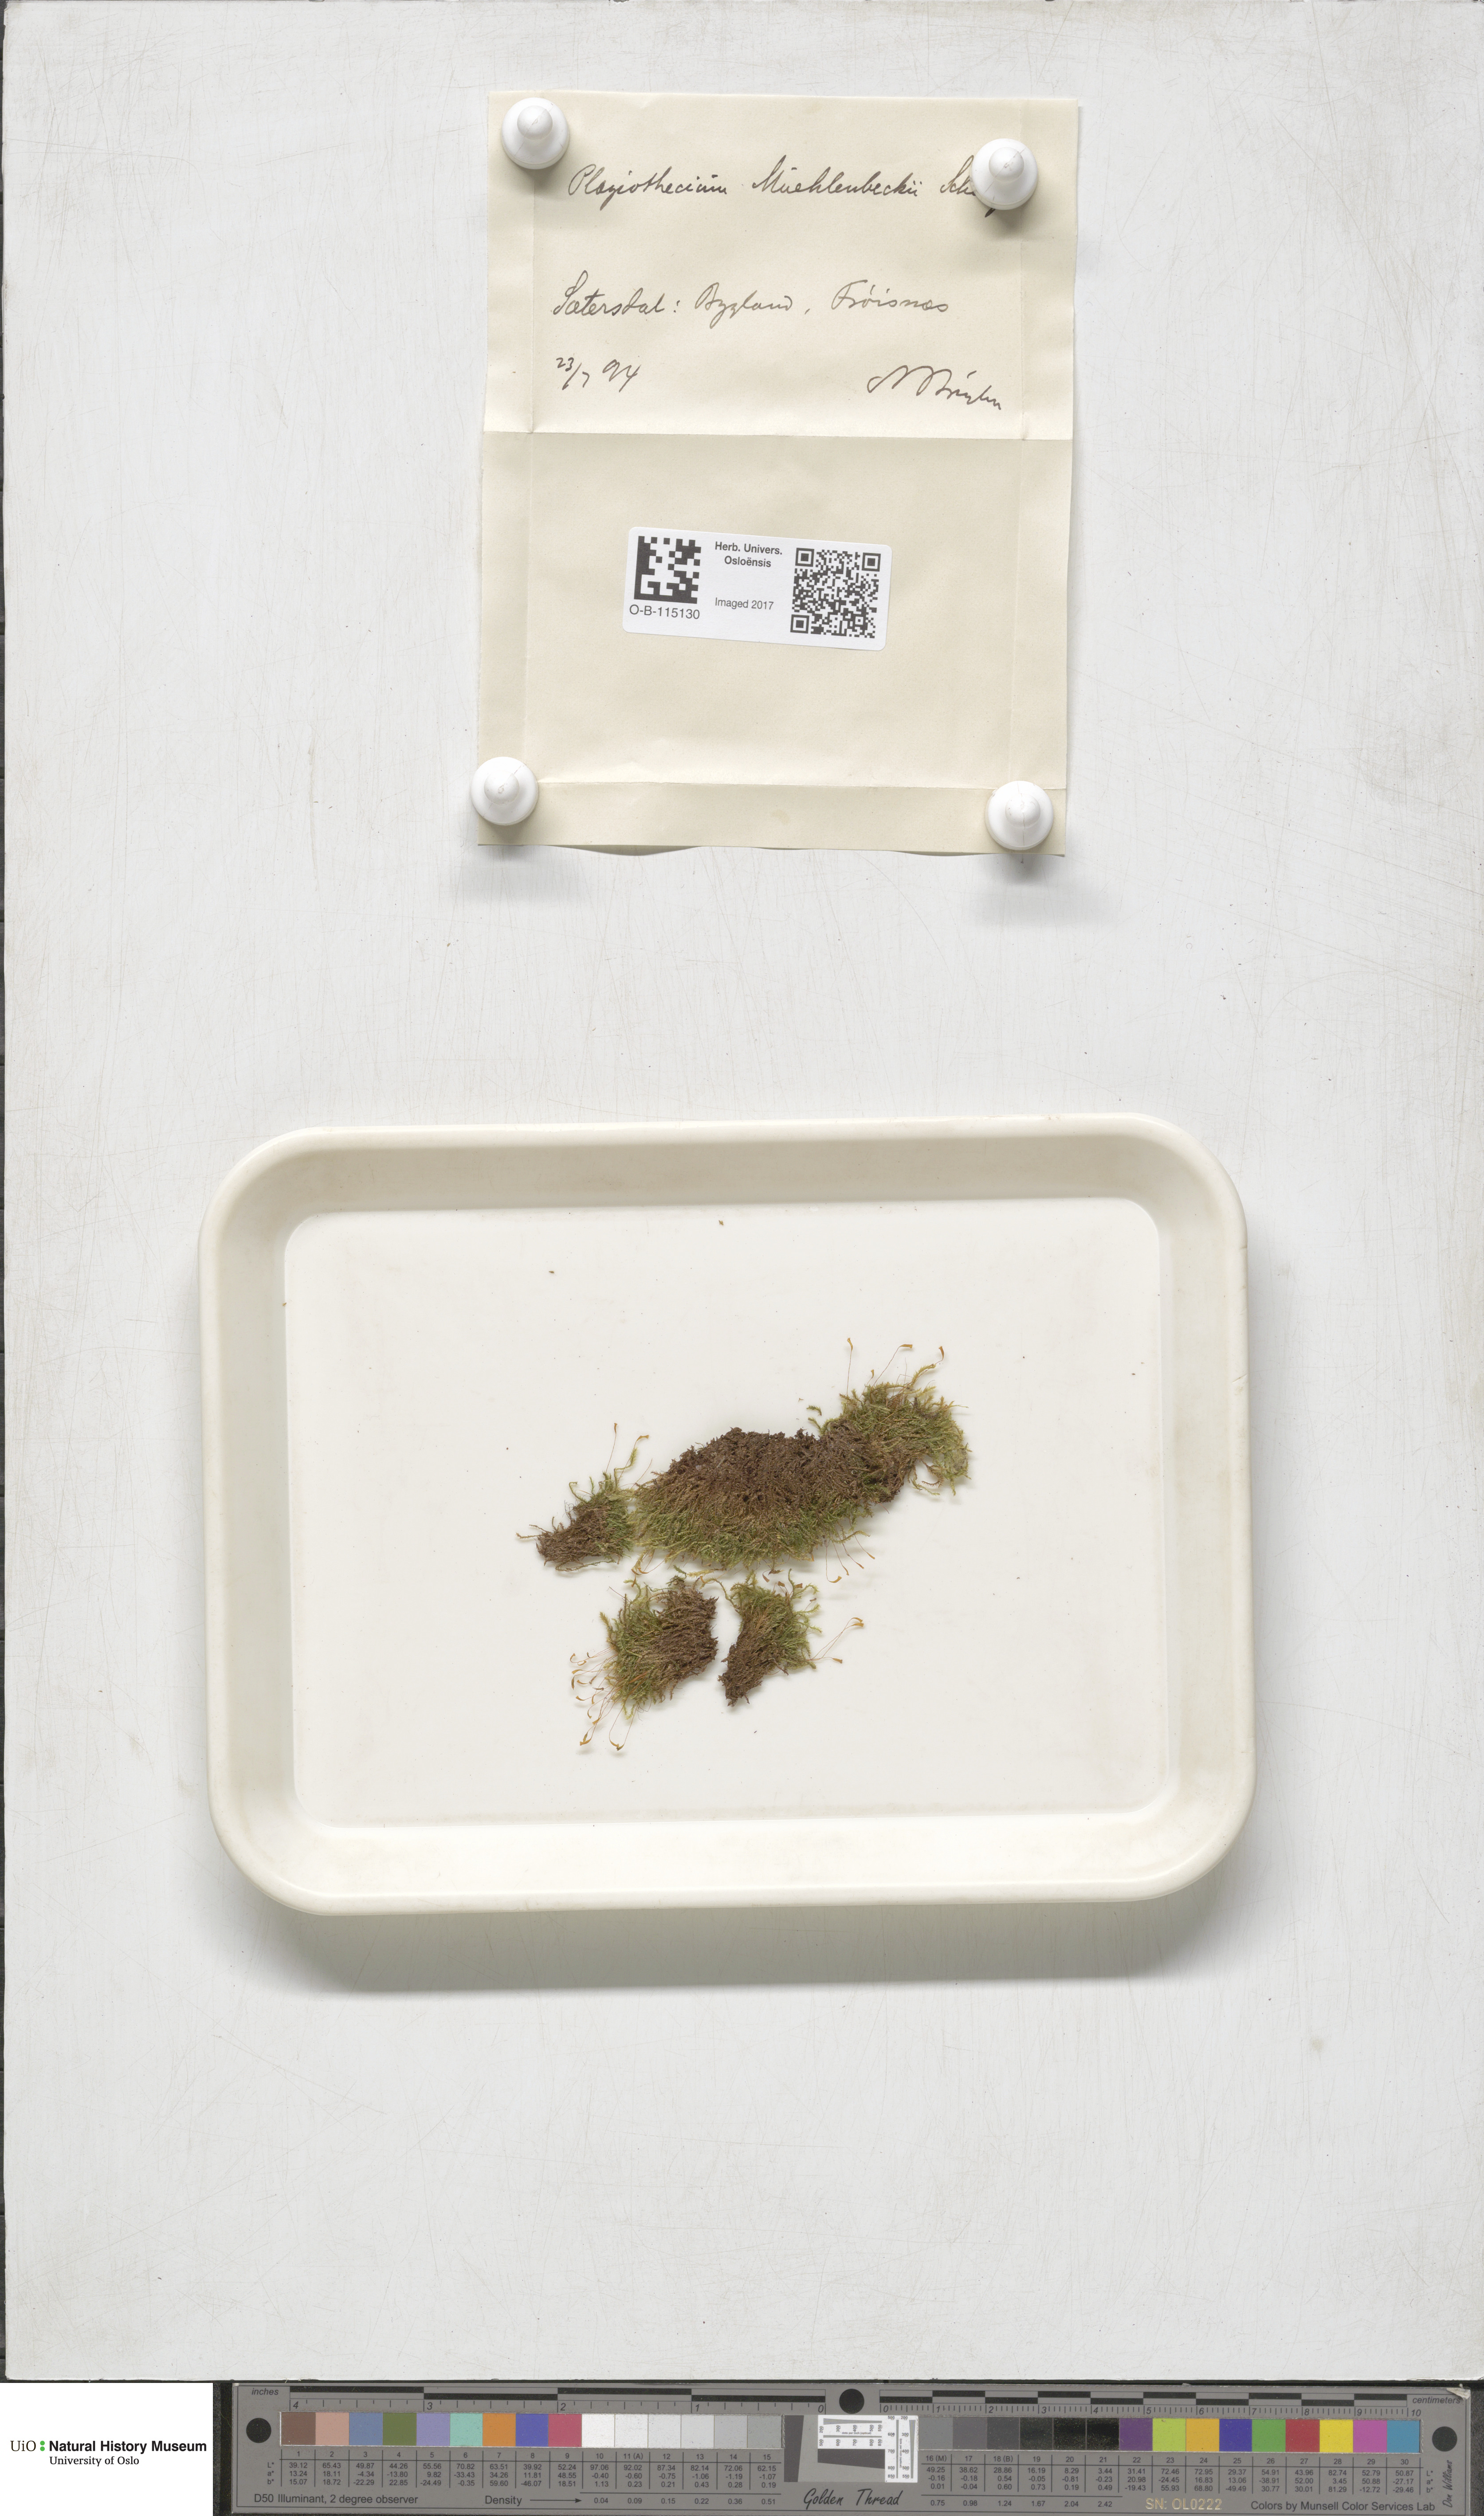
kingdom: Plantae
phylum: Bryophyta
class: Bryopsida
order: Hypnales
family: Plagiotheciaceae
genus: Herzogiella
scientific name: Herzogiella striatella
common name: Muhlenbeck's feather-moss
